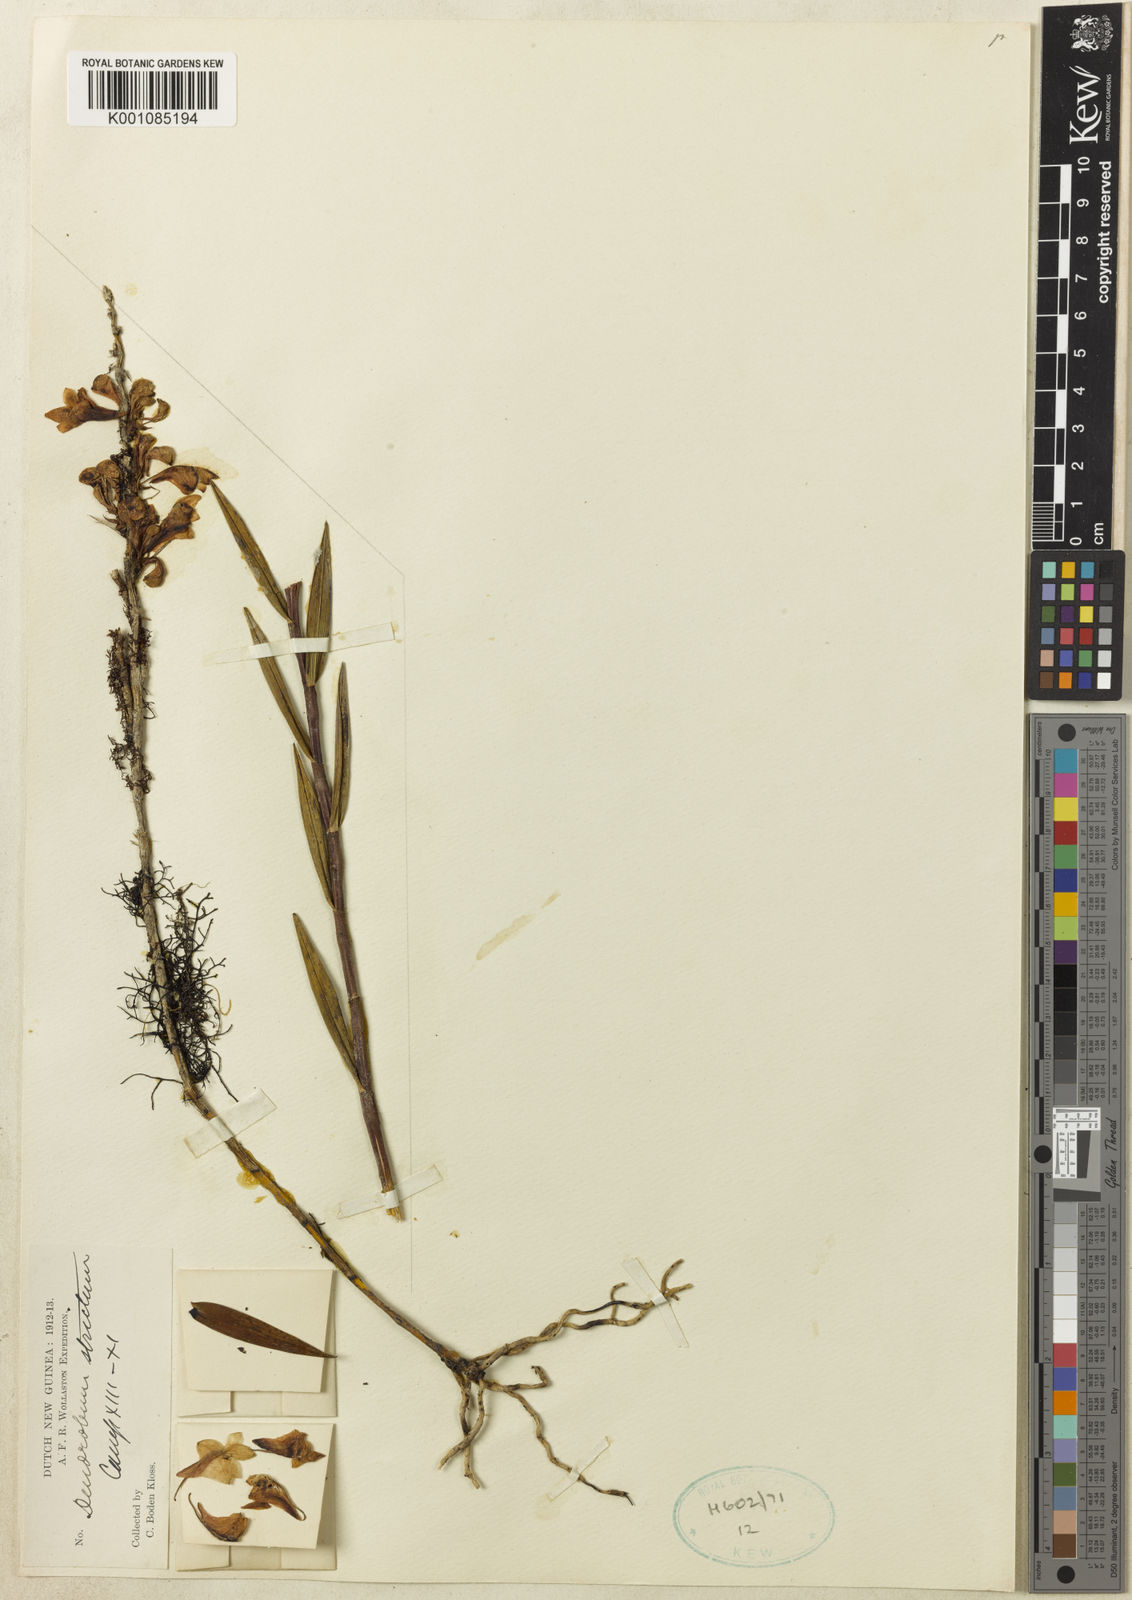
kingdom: Plantae
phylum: Tracheophyta
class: Liliopsida
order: Asparagales
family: Orchidaceae
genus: Dendrobium
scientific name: Dendrobium subclausum
